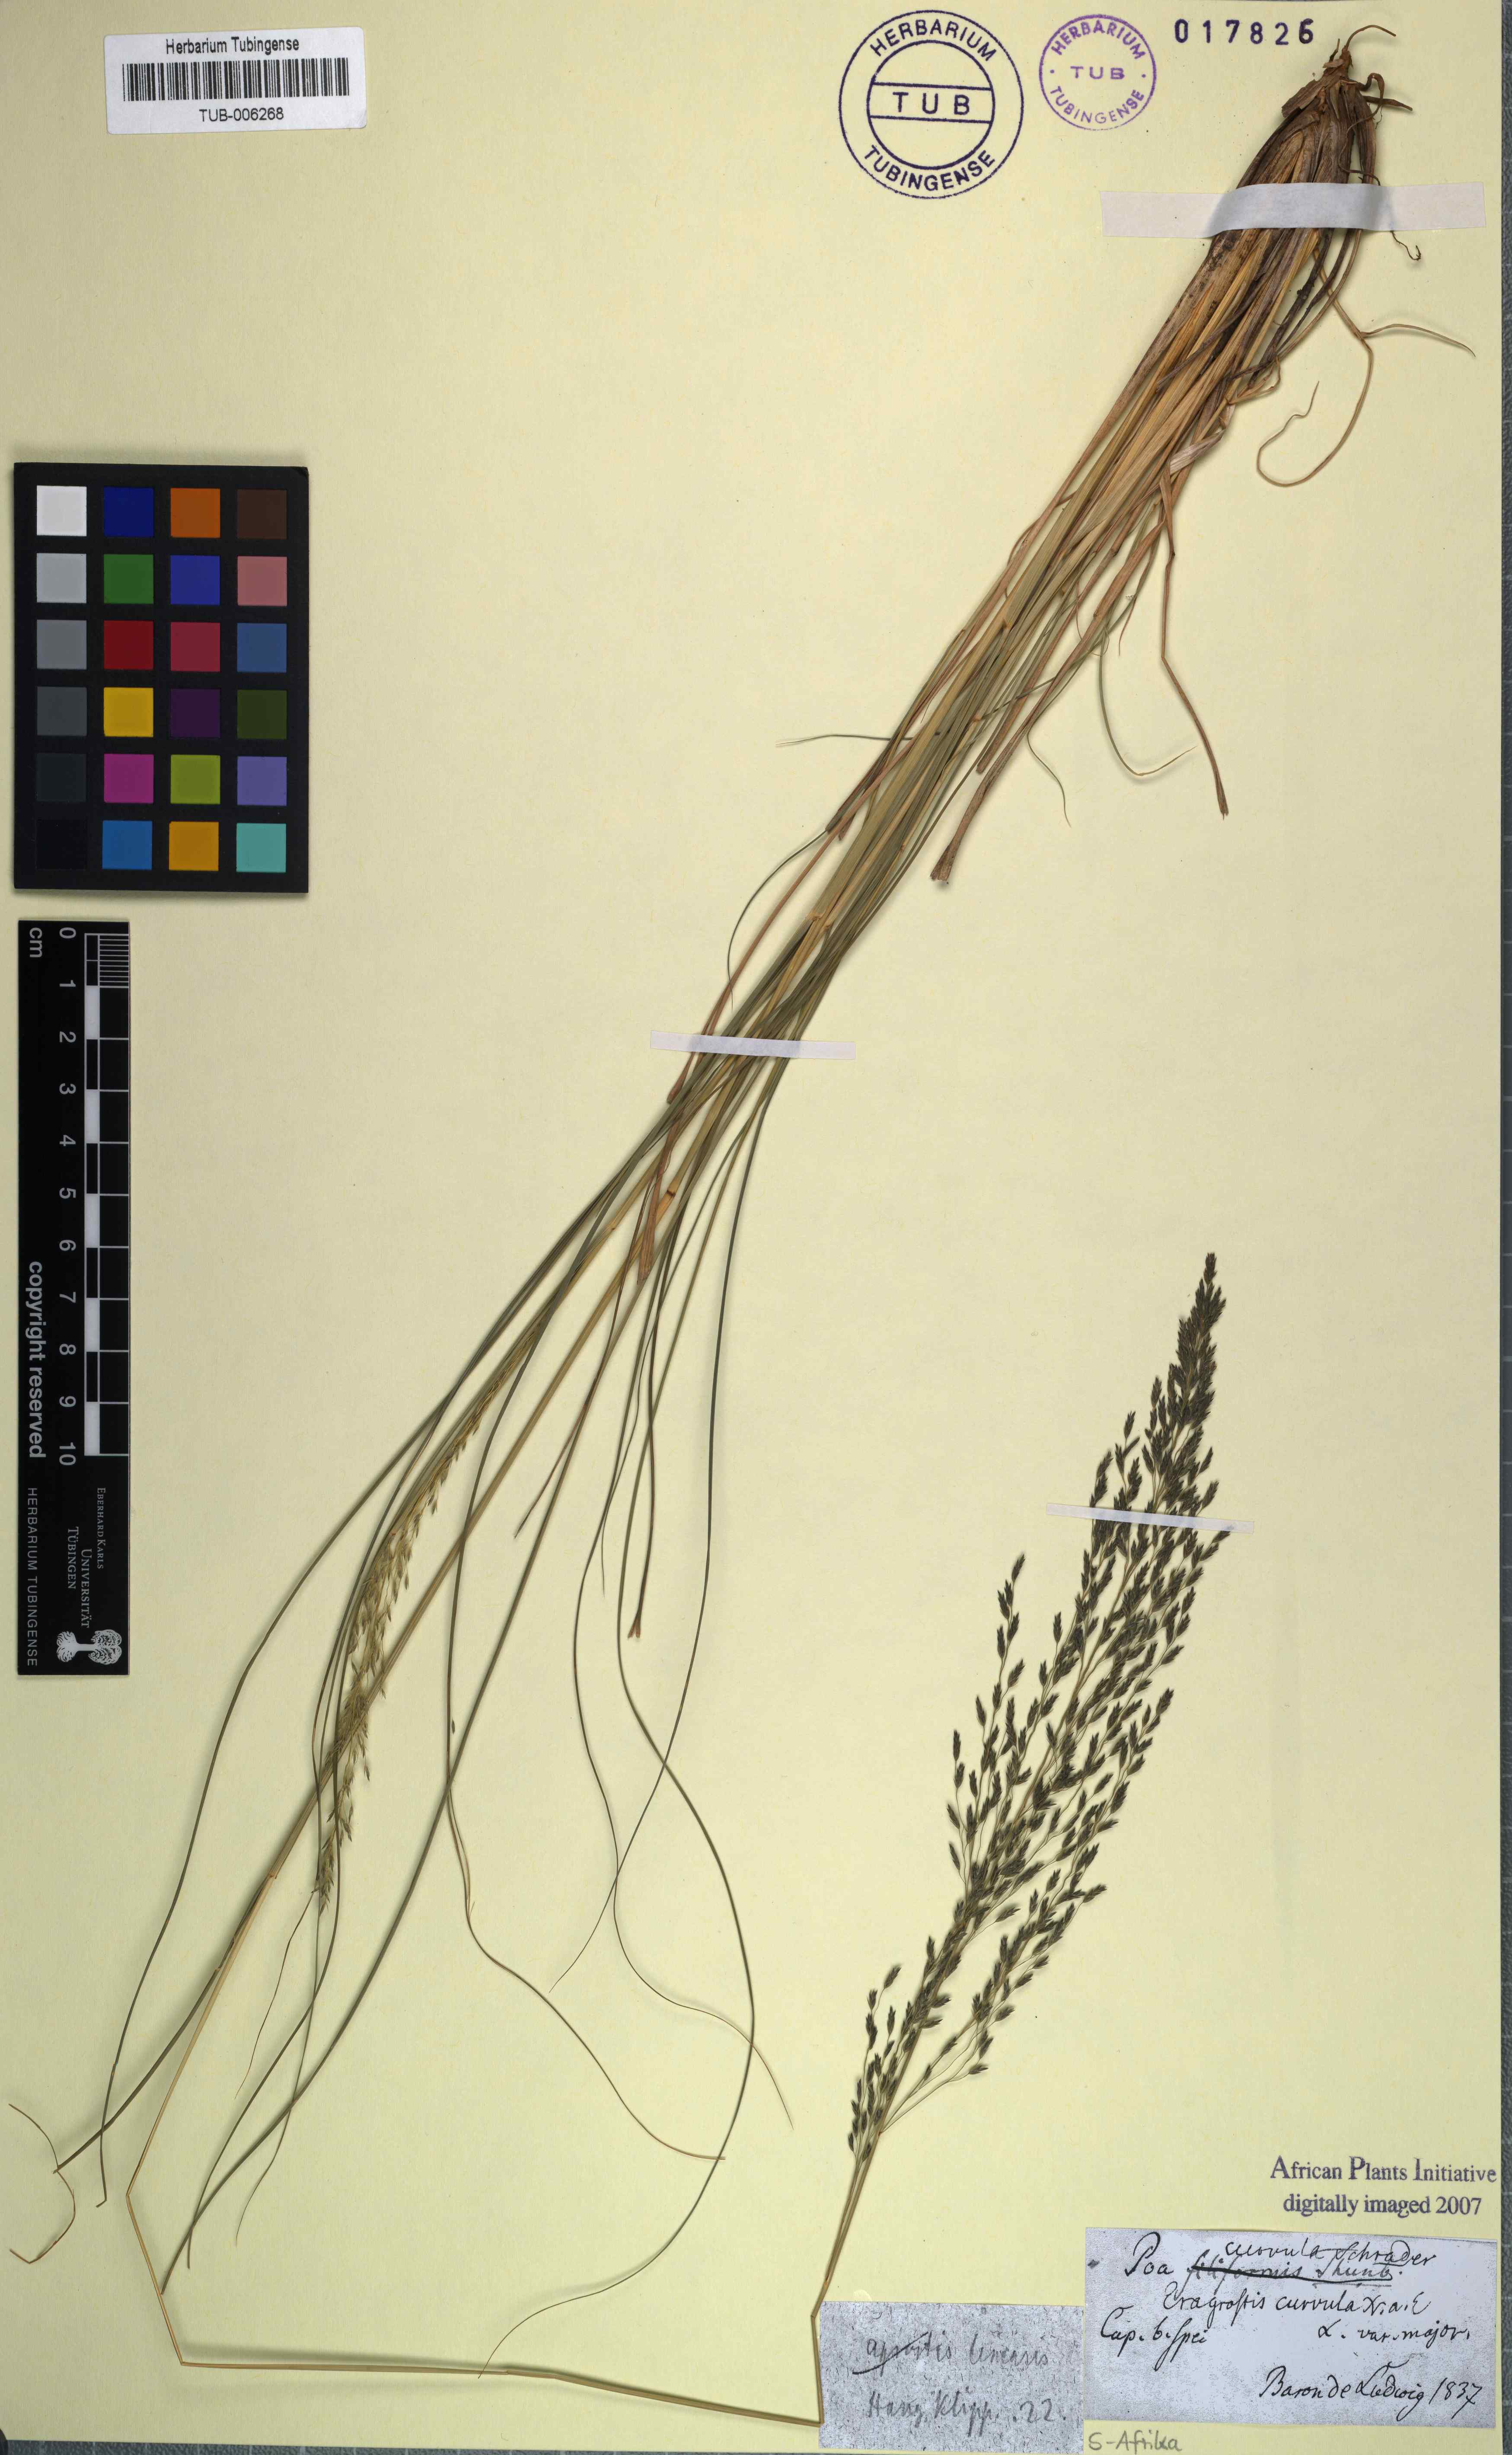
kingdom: Plantae
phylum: Tracheophyta
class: Liliopsida
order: Poales
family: Poaceae
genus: Eragrostis
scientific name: Eragrostis curvula
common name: African love-grass
